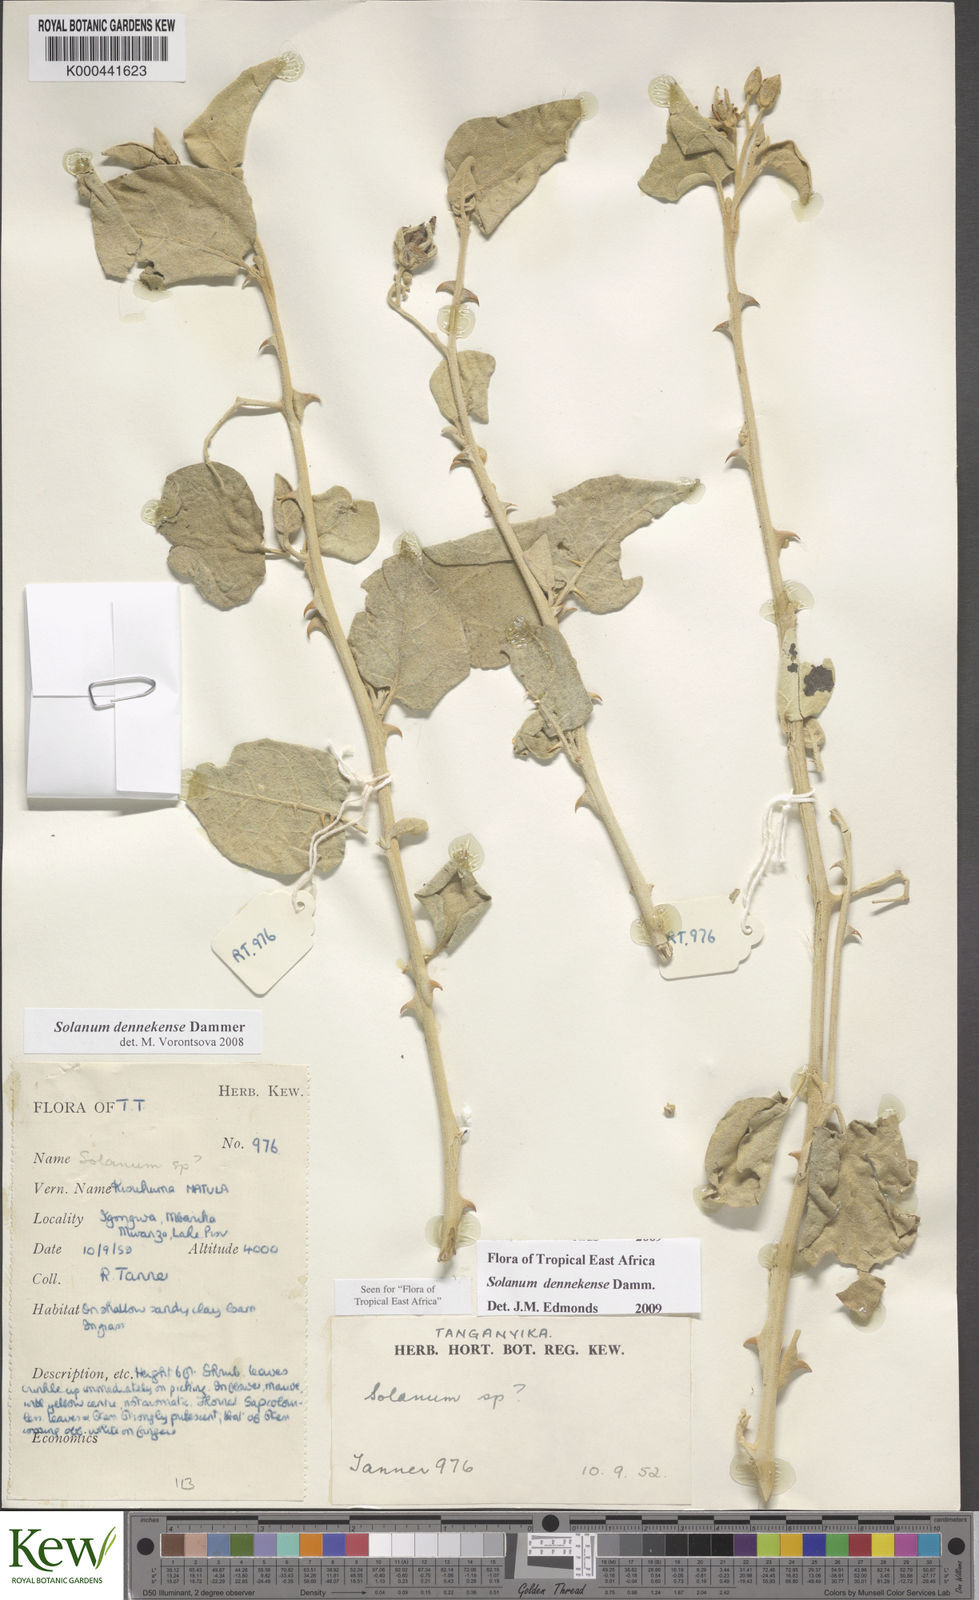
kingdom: Plantae
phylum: Tracheophyta
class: Magnoliopsida
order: Solanales
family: Solanaceae
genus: Solanum
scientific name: Solanum dennekense
